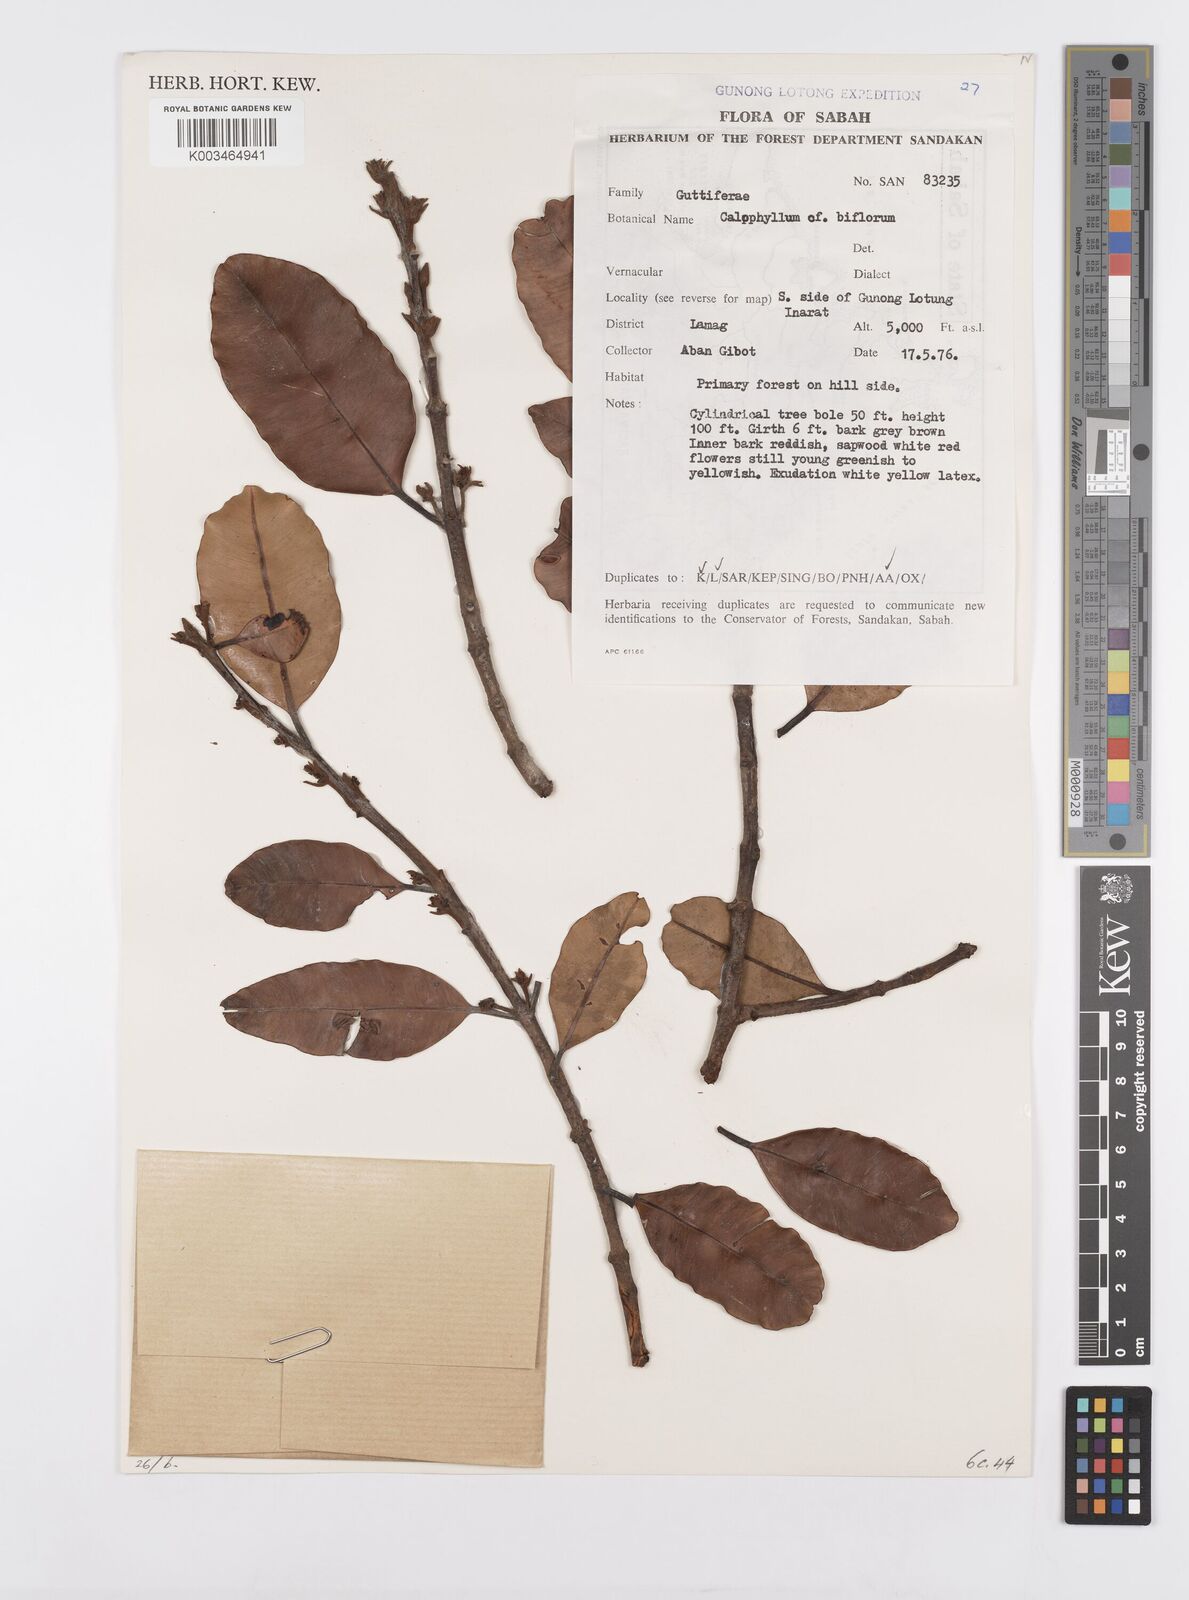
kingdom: Plantae
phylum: Tracheophyta
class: Magnoliopsida
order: Malpighiales
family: Calophyllaceae
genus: Calophyllum
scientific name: Calophyllum biflorum
